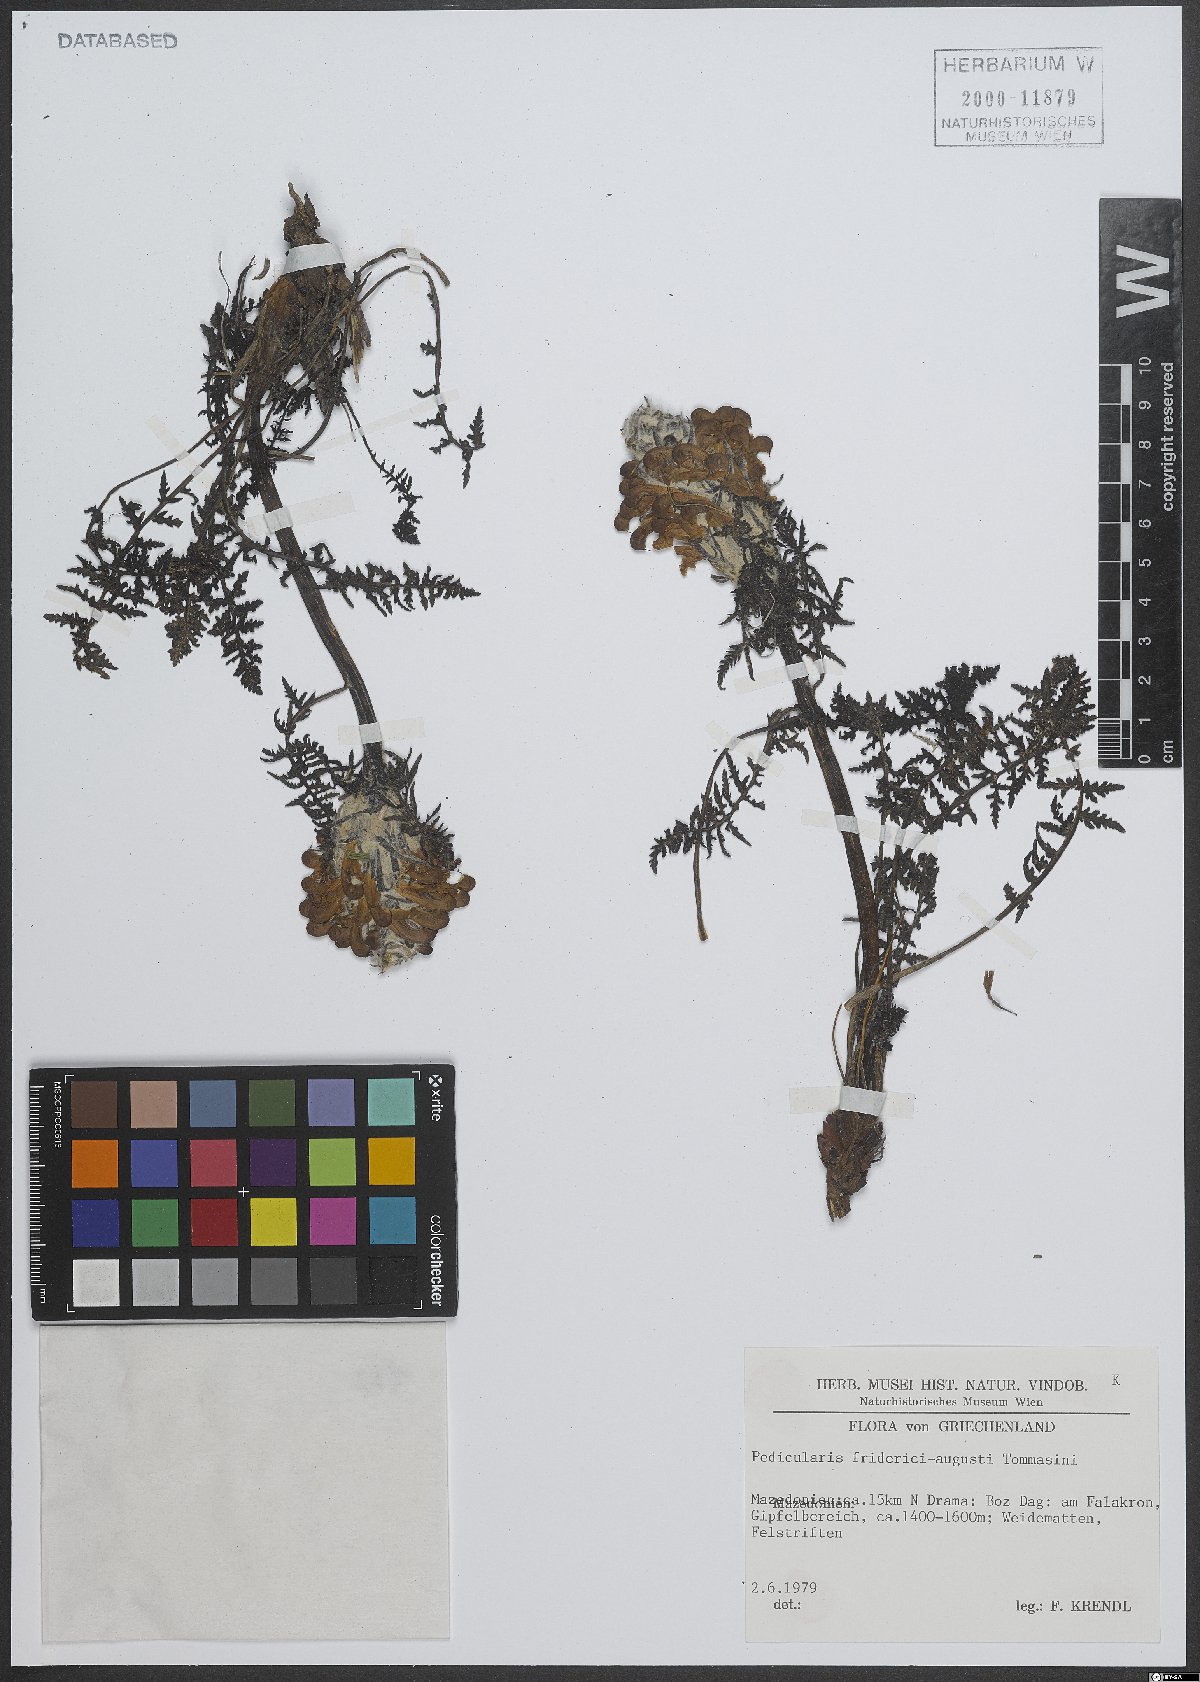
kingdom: Plantae
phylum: Tracheophyta
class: Magnoliopsida
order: Lamiales
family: Orobanchaceae
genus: Pedicularis
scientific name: Pedicularis friderici-augusti
